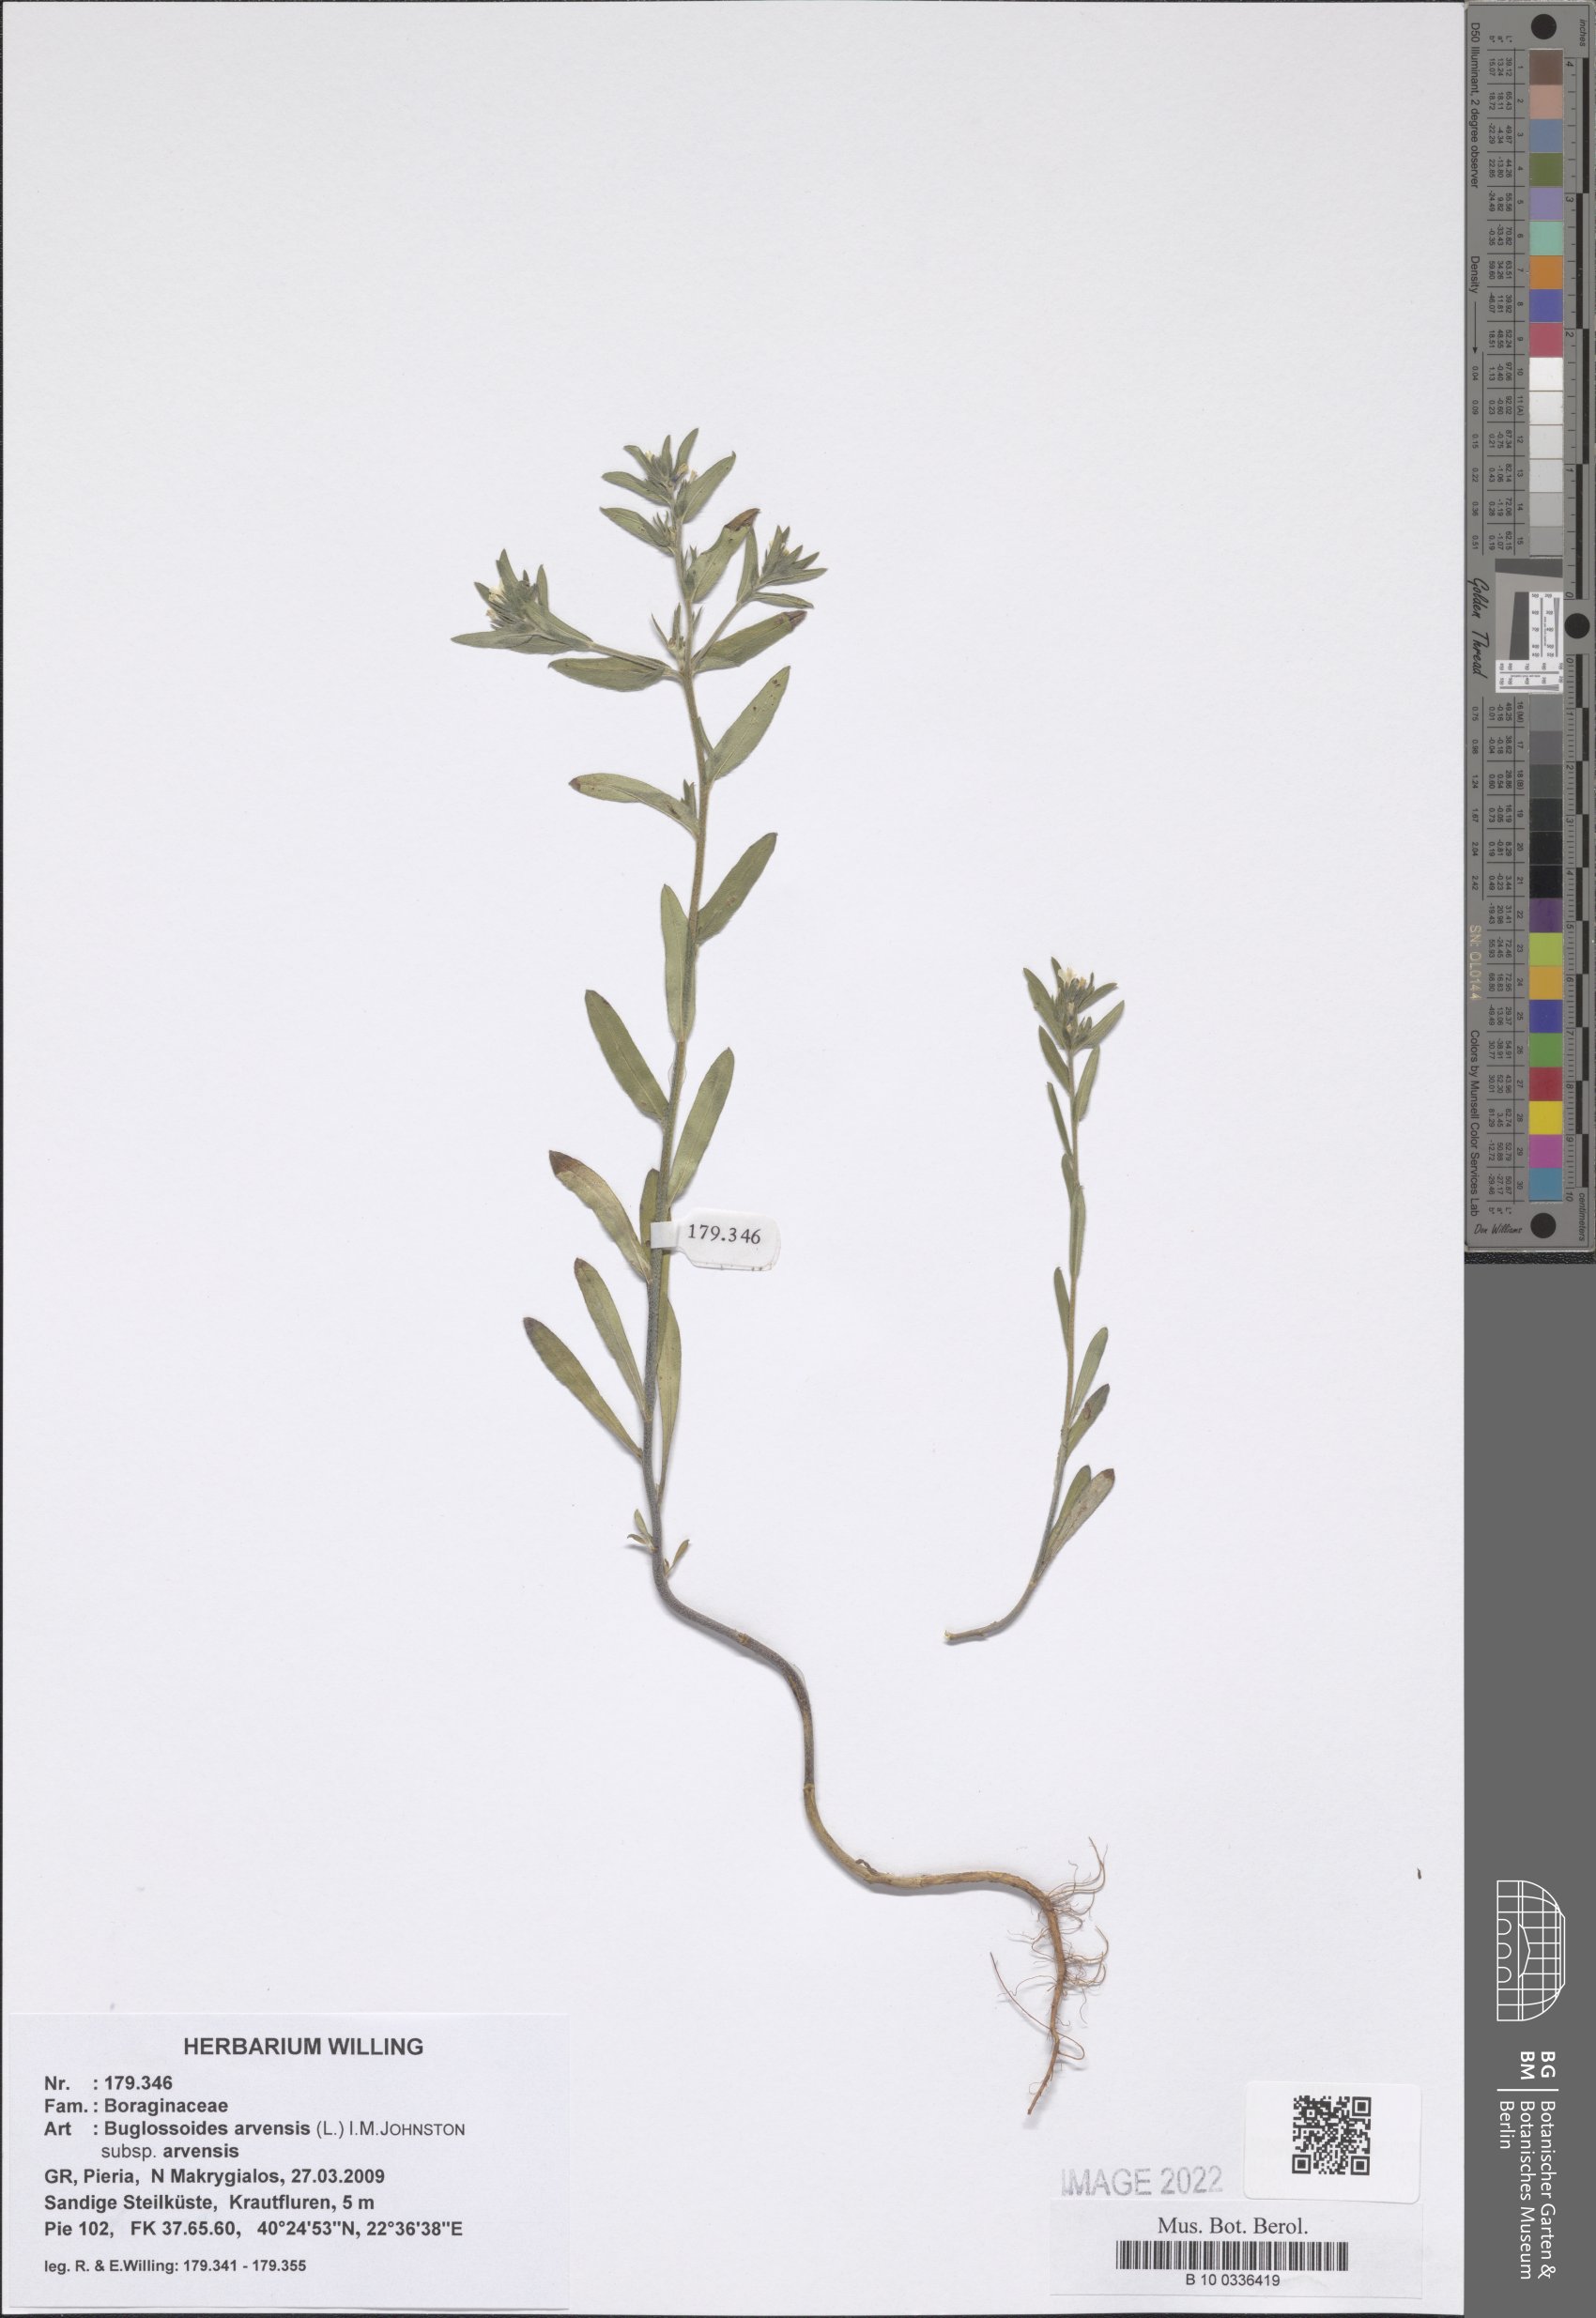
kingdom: Plantae
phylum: Tracheophyta
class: Magnoliopsida
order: Boraginales
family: Boraginaceae
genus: Buglossoides
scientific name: Buglossoides arvensis
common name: Corn gromwell
